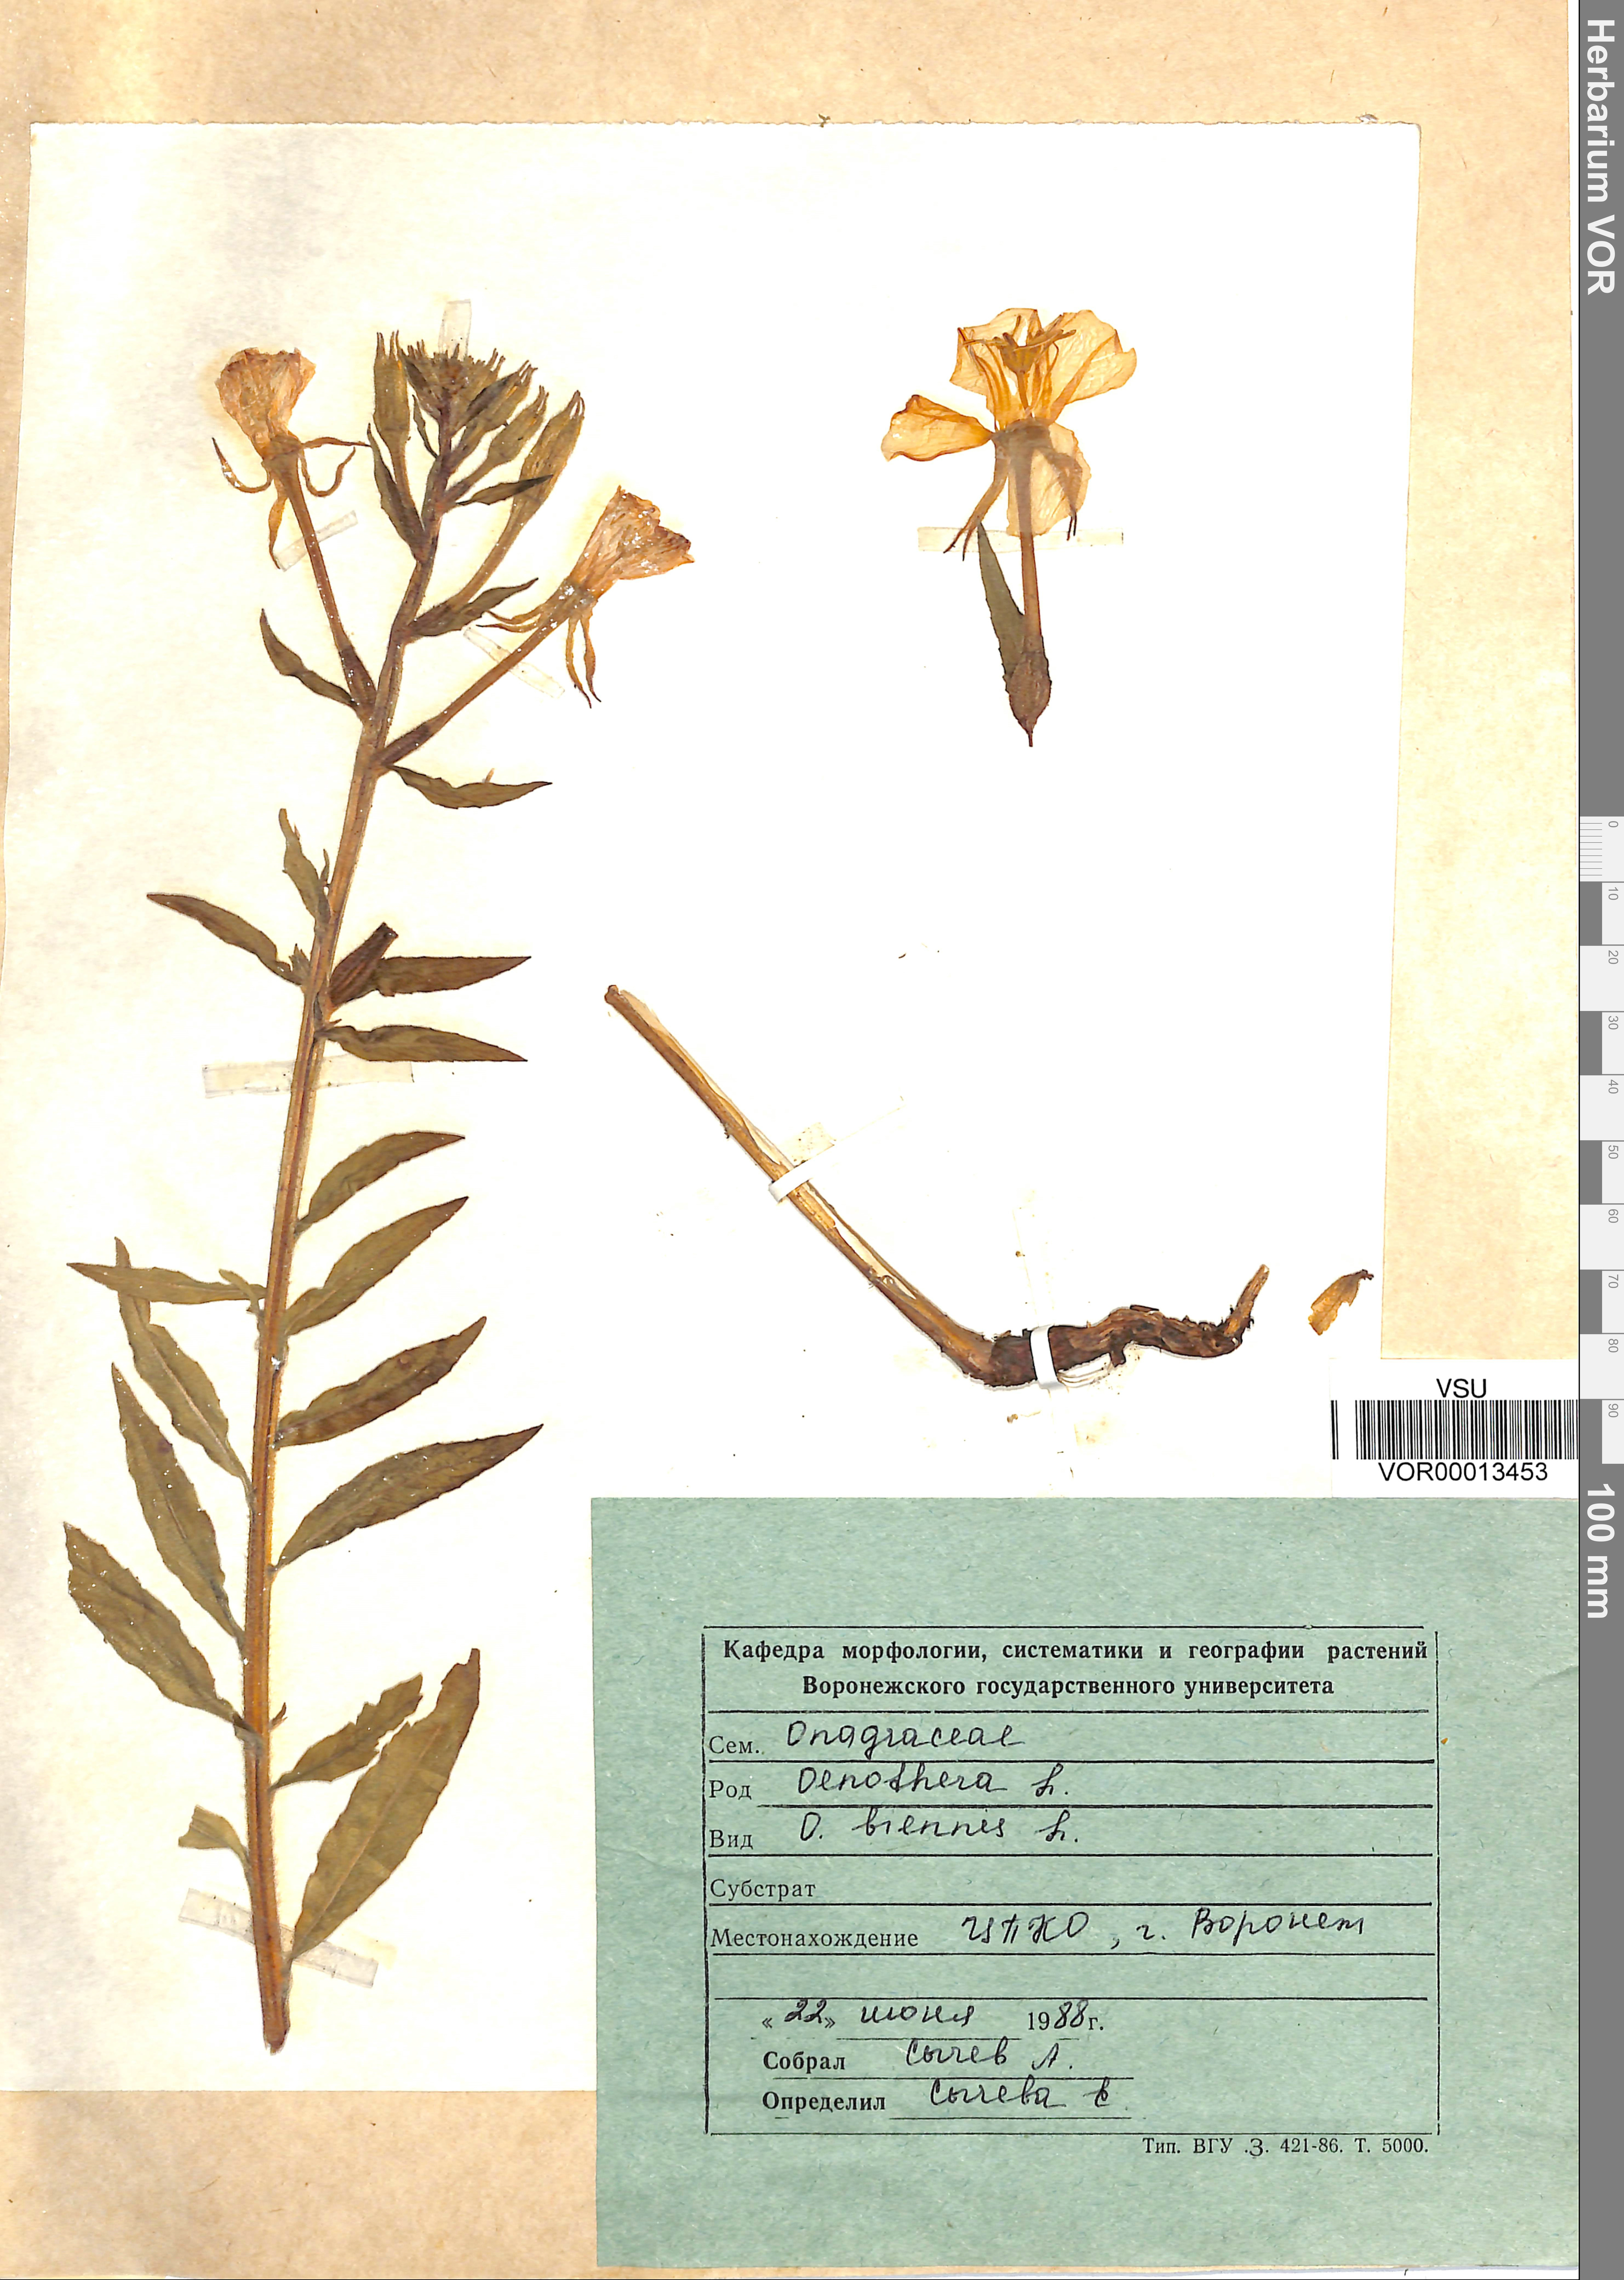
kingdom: Plantae
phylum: Tracheophyta
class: Magnoliopsida
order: Myrtales
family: Onagraceae
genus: Oenothera
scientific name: Oenothera biennis
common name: Common evening-primrose
